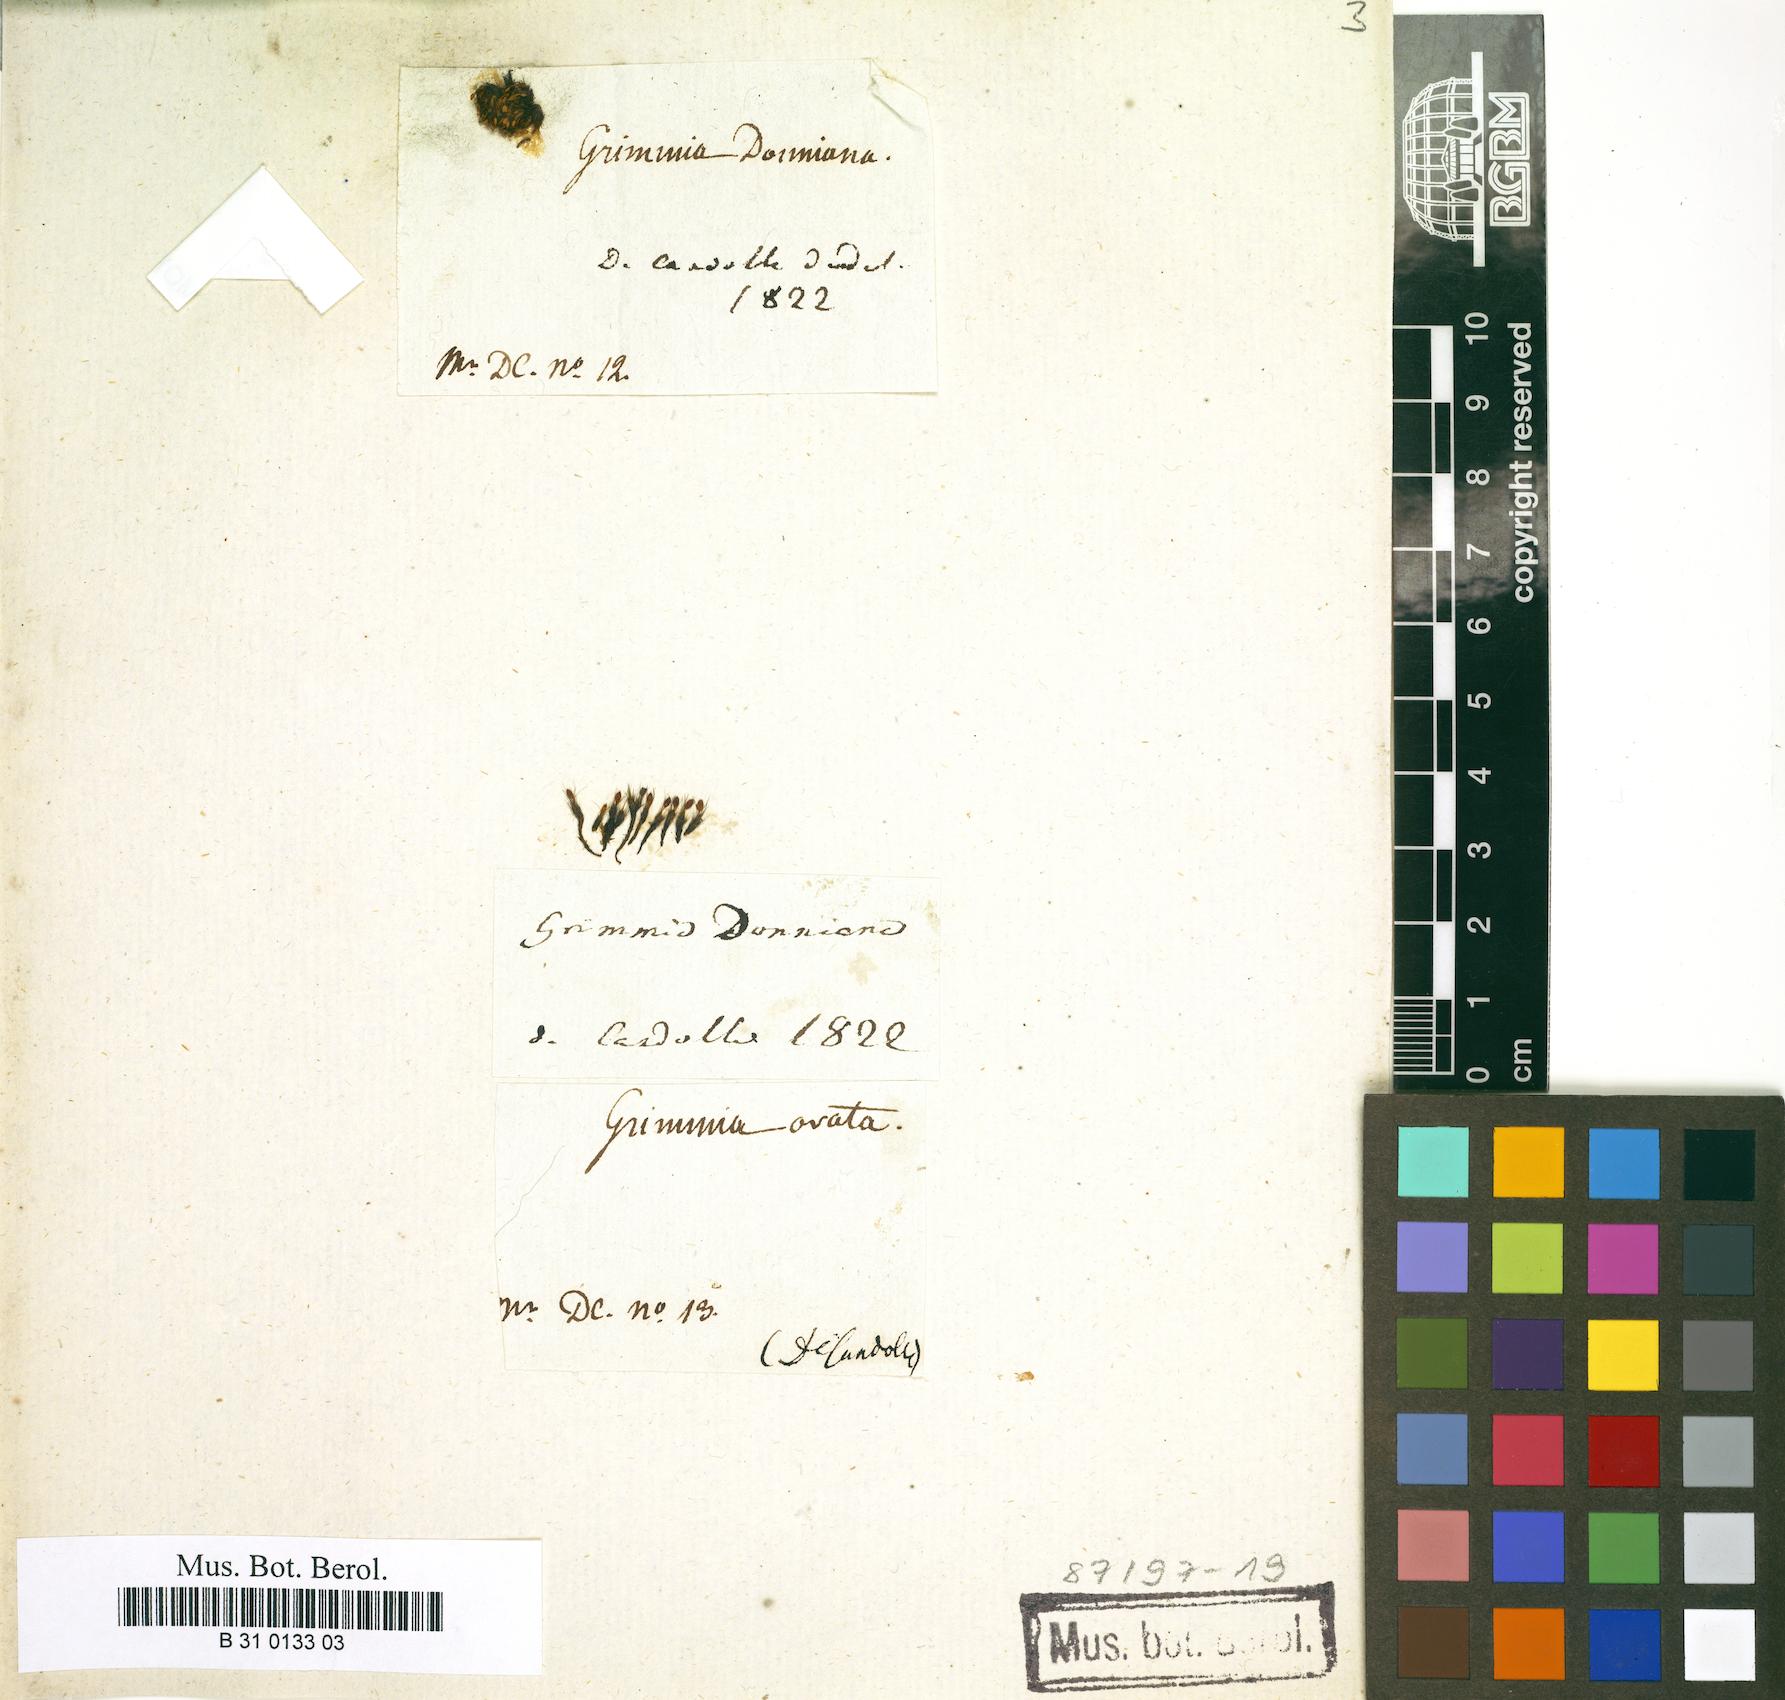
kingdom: Plantae
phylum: Bryophyta
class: Bryopsida
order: Grimmiales
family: Grimmiaceae
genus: Grimmia
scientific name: Grimmia donniana
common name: Donn's grimmia
